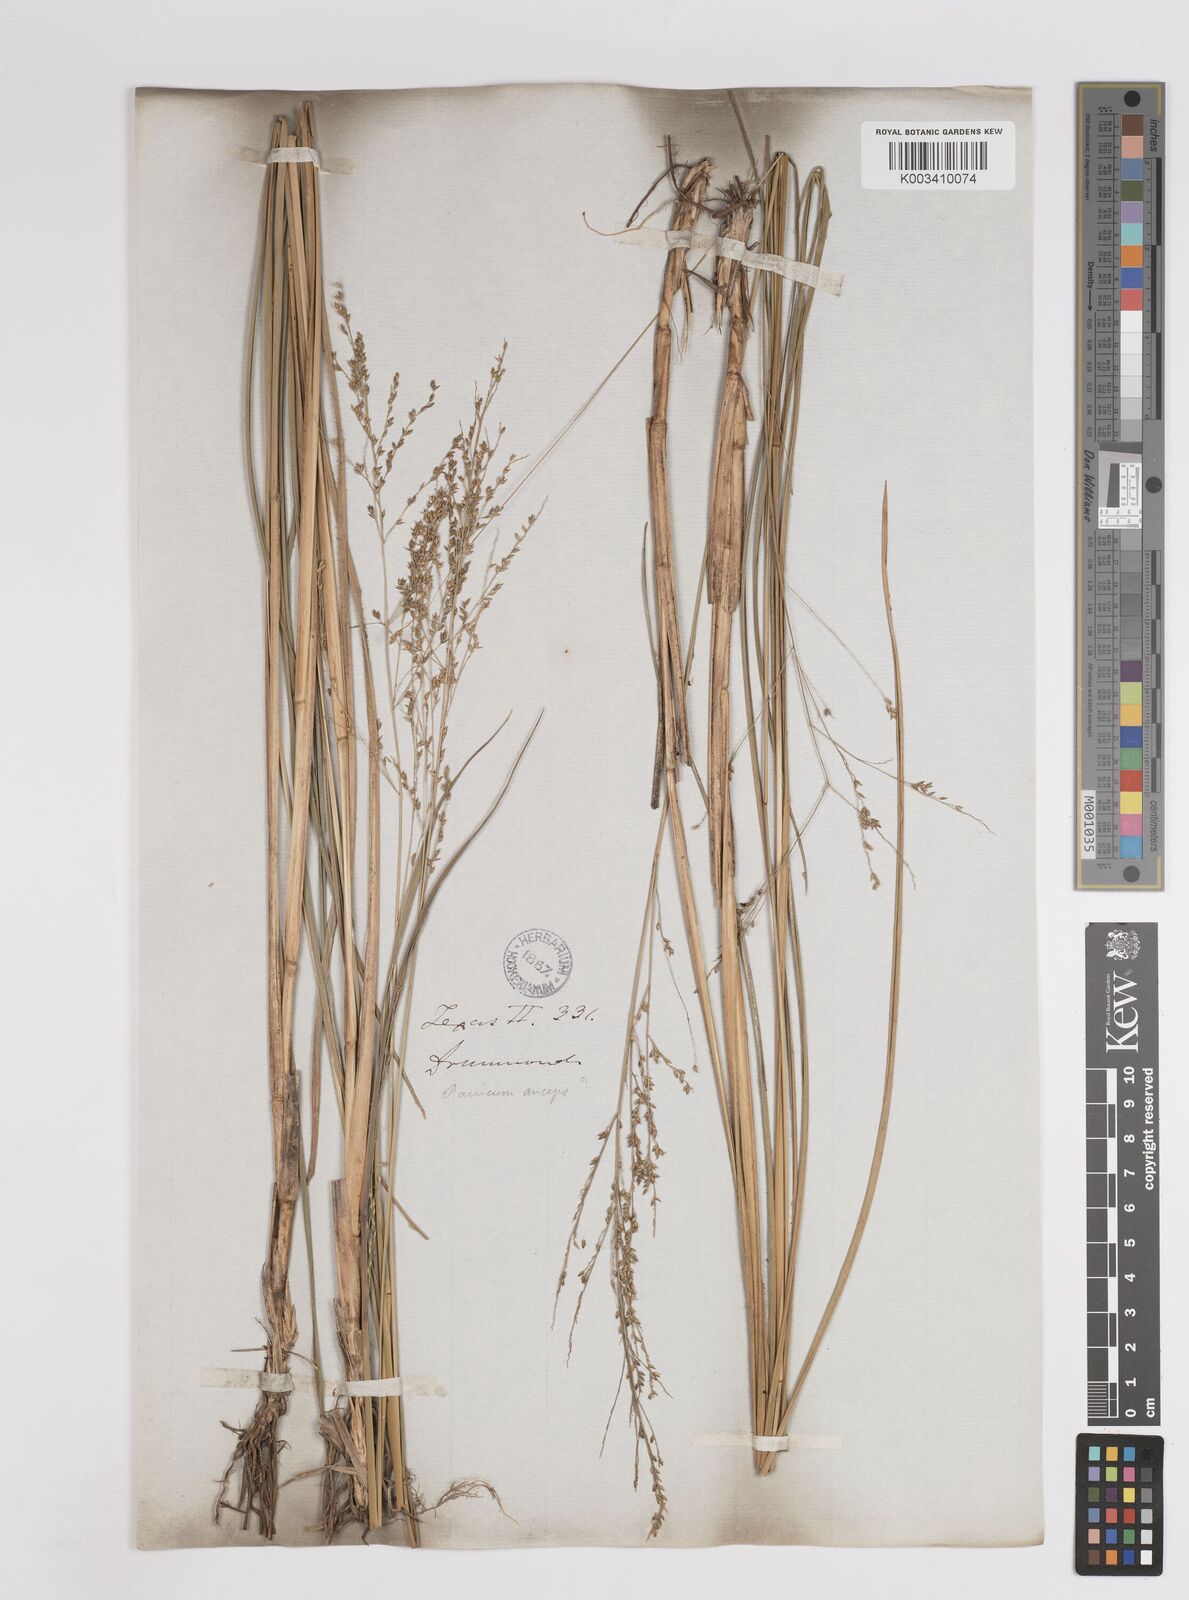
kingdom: Plantae
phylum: Tracheophyta
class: Liliopsida
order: Poales
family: Poaceae
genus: Coleataenia
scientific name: Coleataenia anceps
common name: Beaked panic grass
